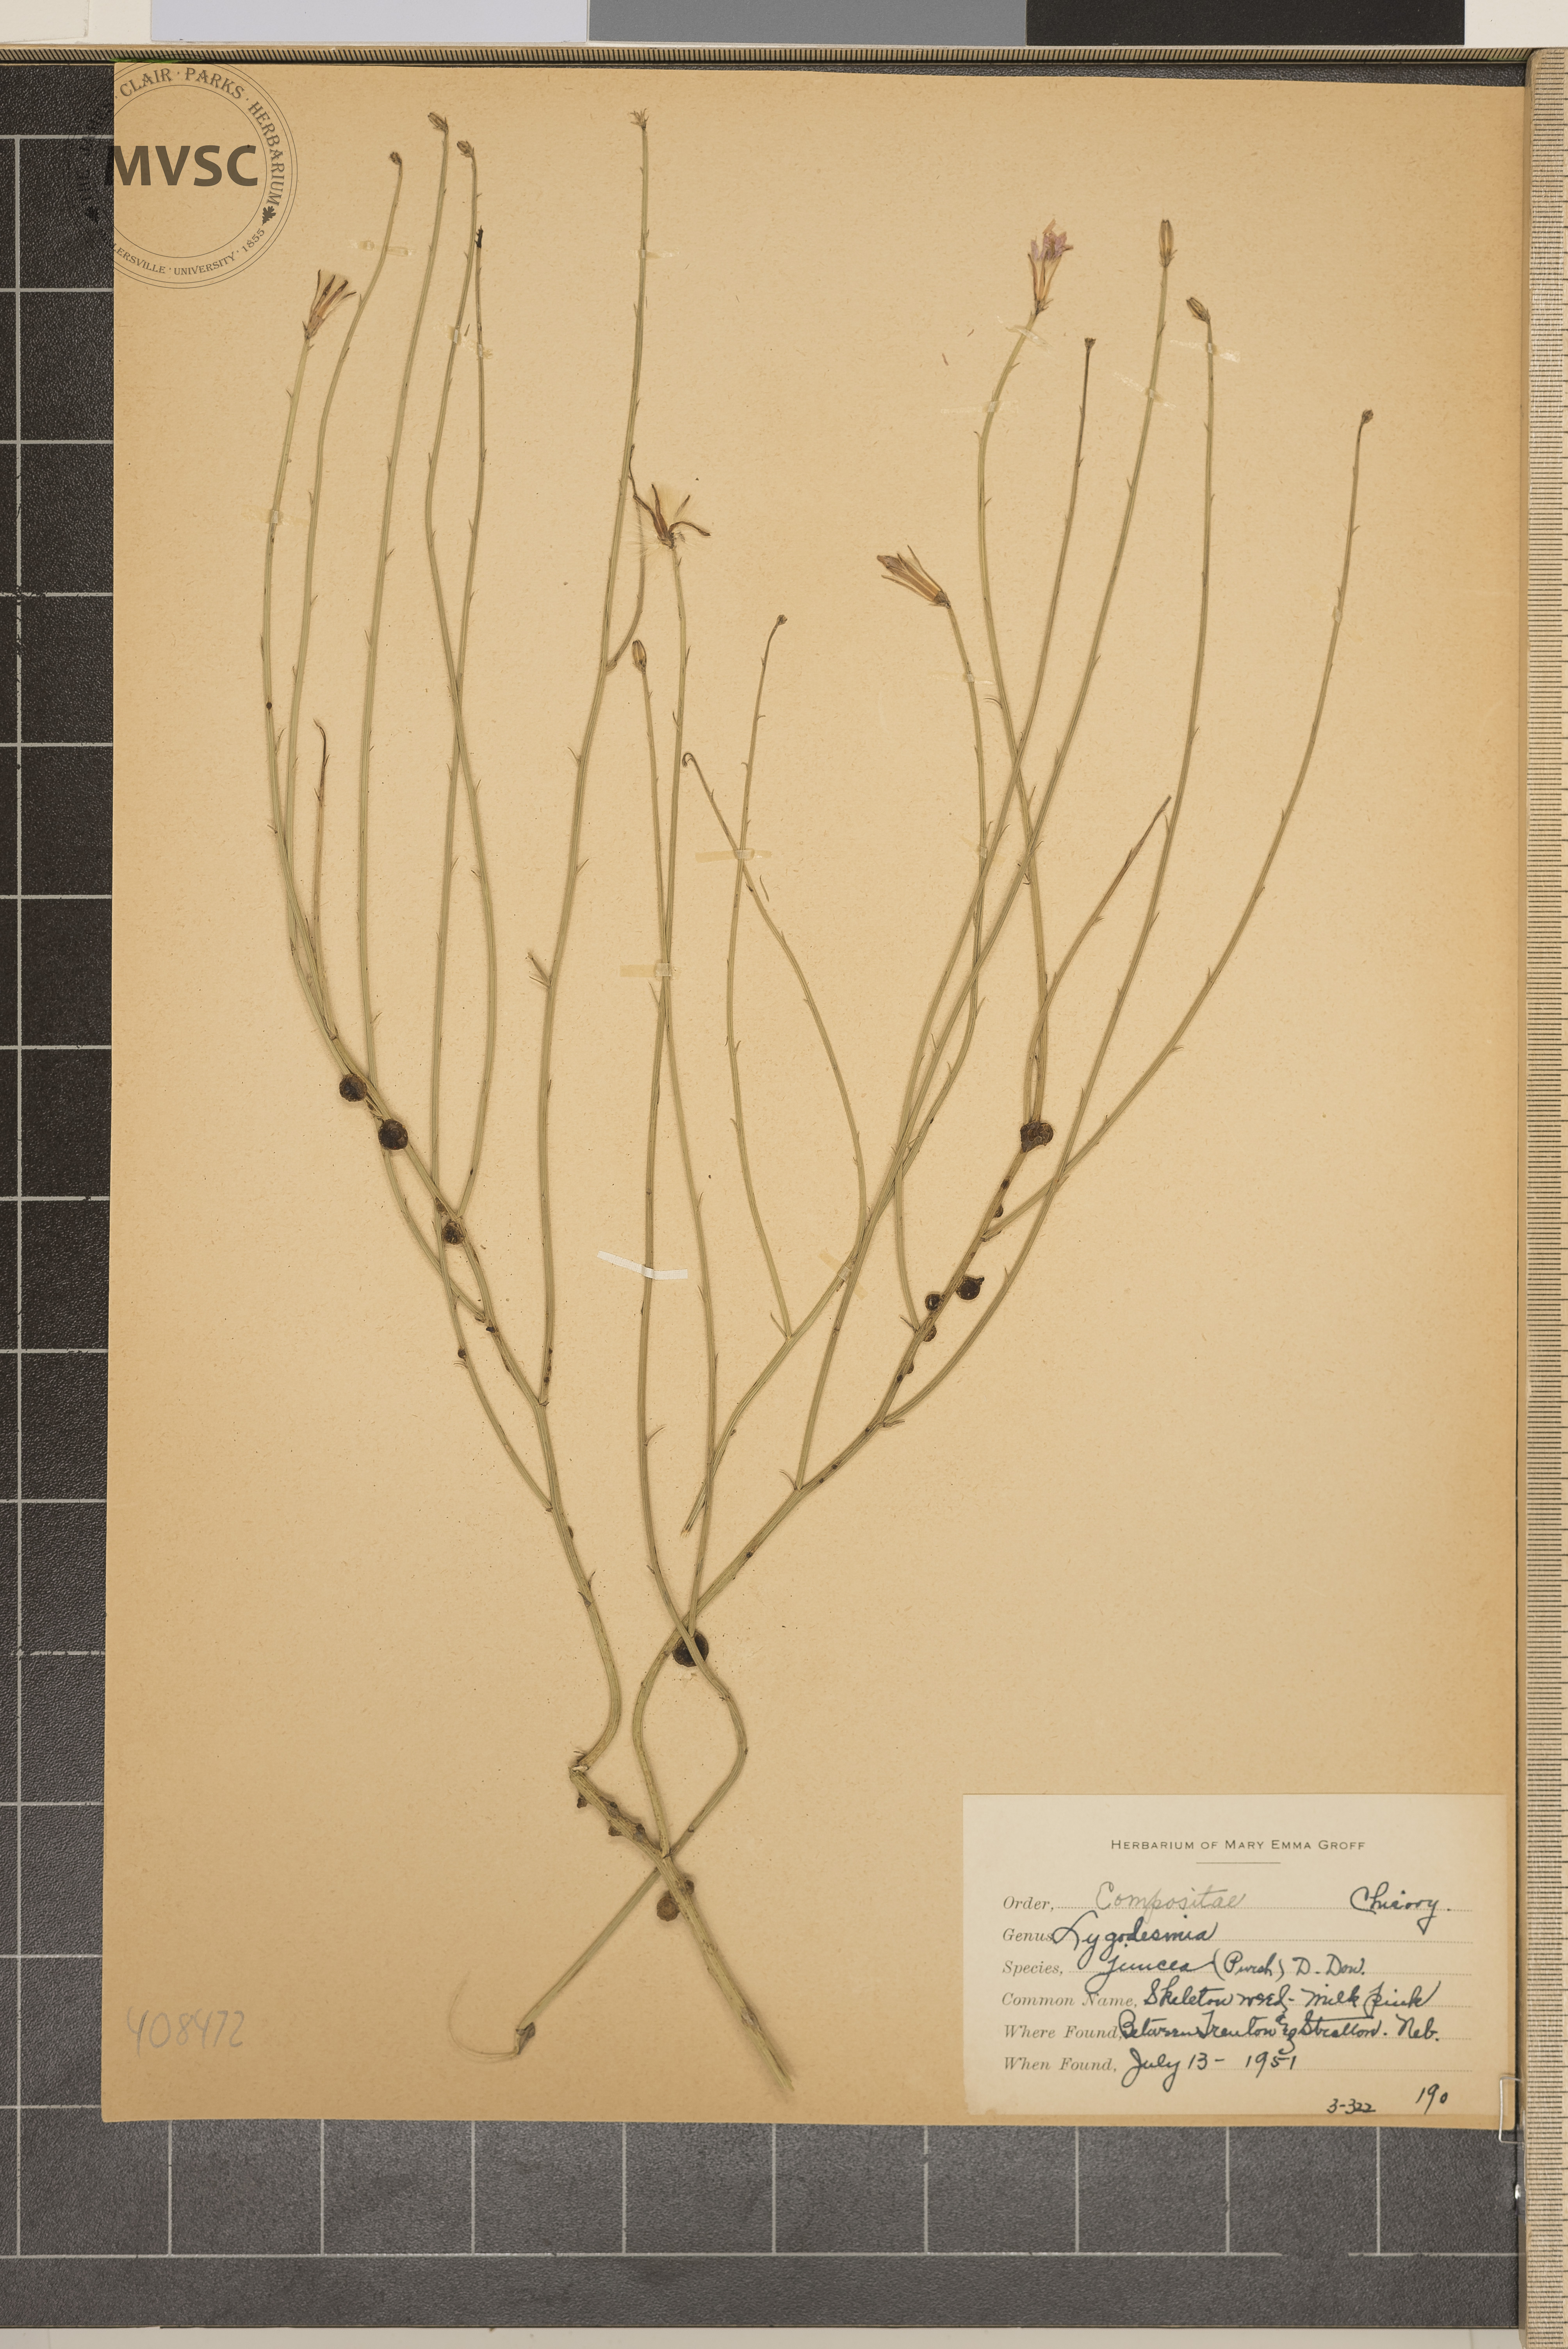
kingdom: Plantae
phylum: Tracheophyta
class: Magnoliopsida
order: Asterales
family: Asteraceae
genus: Lygodesmia
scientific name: Lygodesmia juncea
